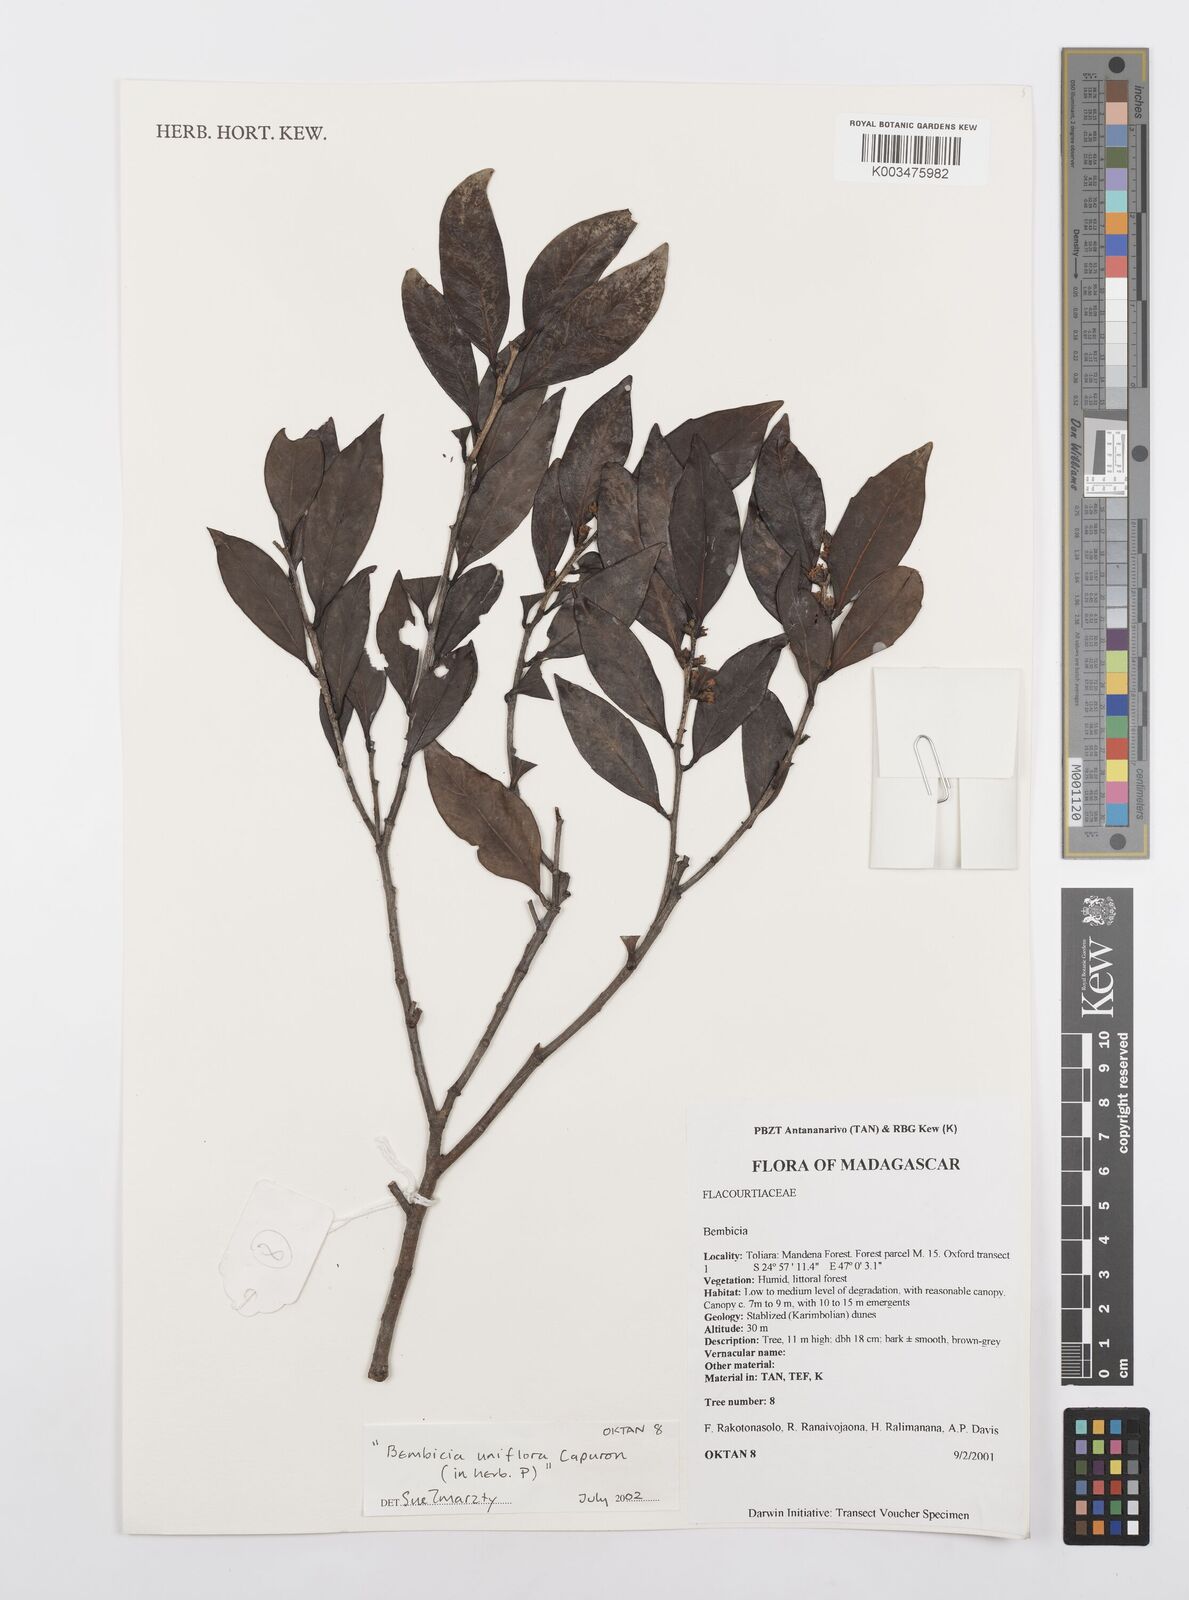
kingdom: Plantae
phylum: Tracheophyta
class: Magnoliopsida
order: Malpighiales
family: Salicaceae
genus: Bembicia
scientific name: Bembicia
